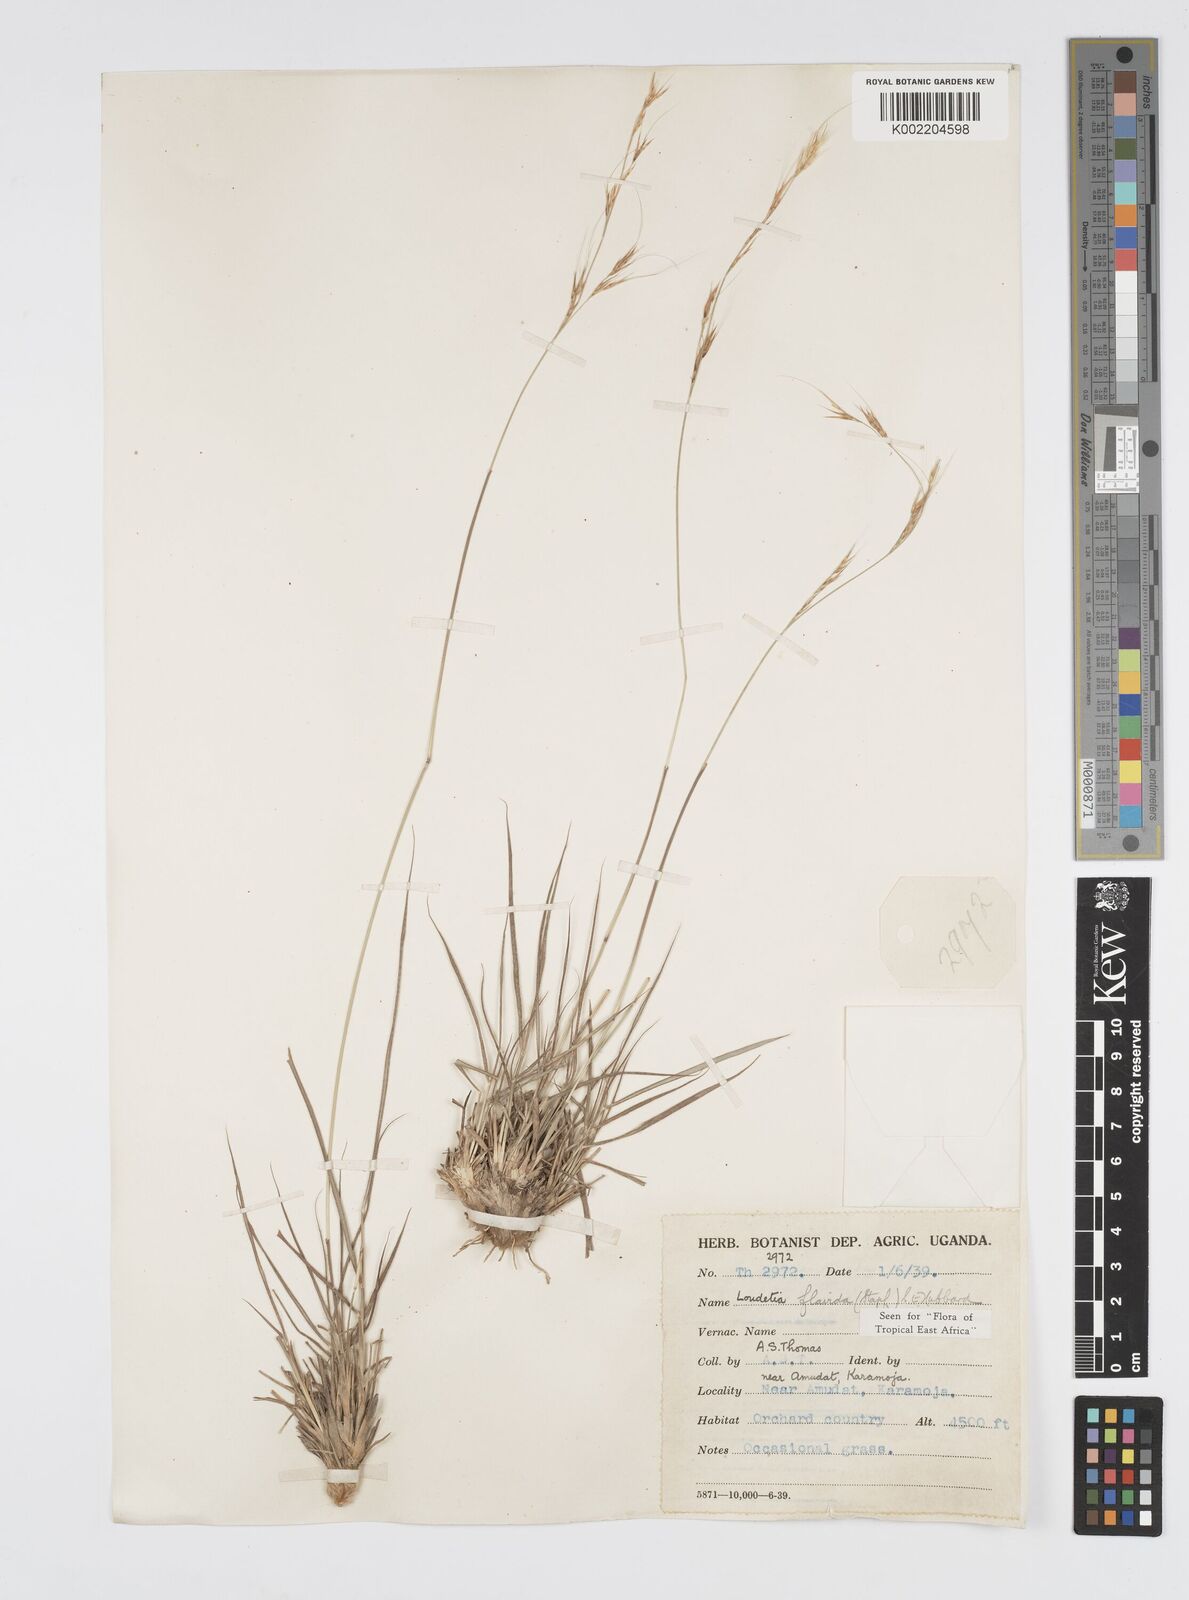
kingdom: Plantae
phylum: Tracheophyta
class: Liliopsida
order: Poales
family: Poaceae
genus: Loudetia
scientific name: Loudetia flavida
